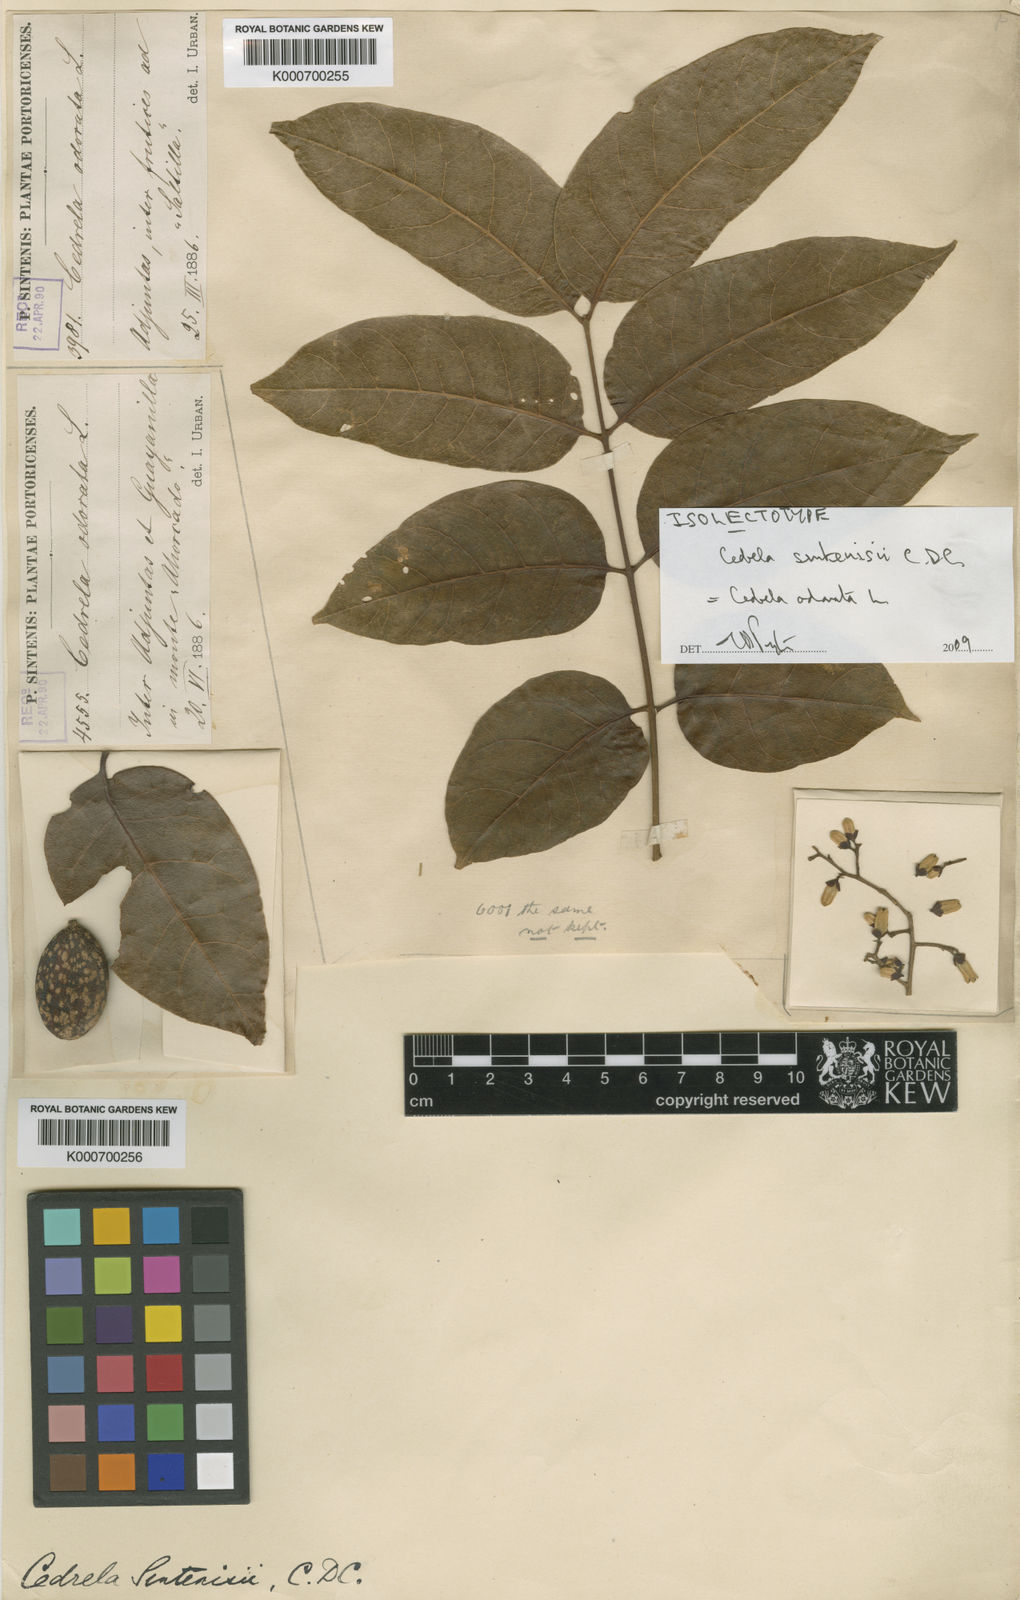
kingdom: Plantae
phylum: Tracheophyta
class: Magnoliopsida
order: Sapindales
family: Meliaceae
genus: Cedrela
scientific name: Cedrela odorata
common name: Red cedar
